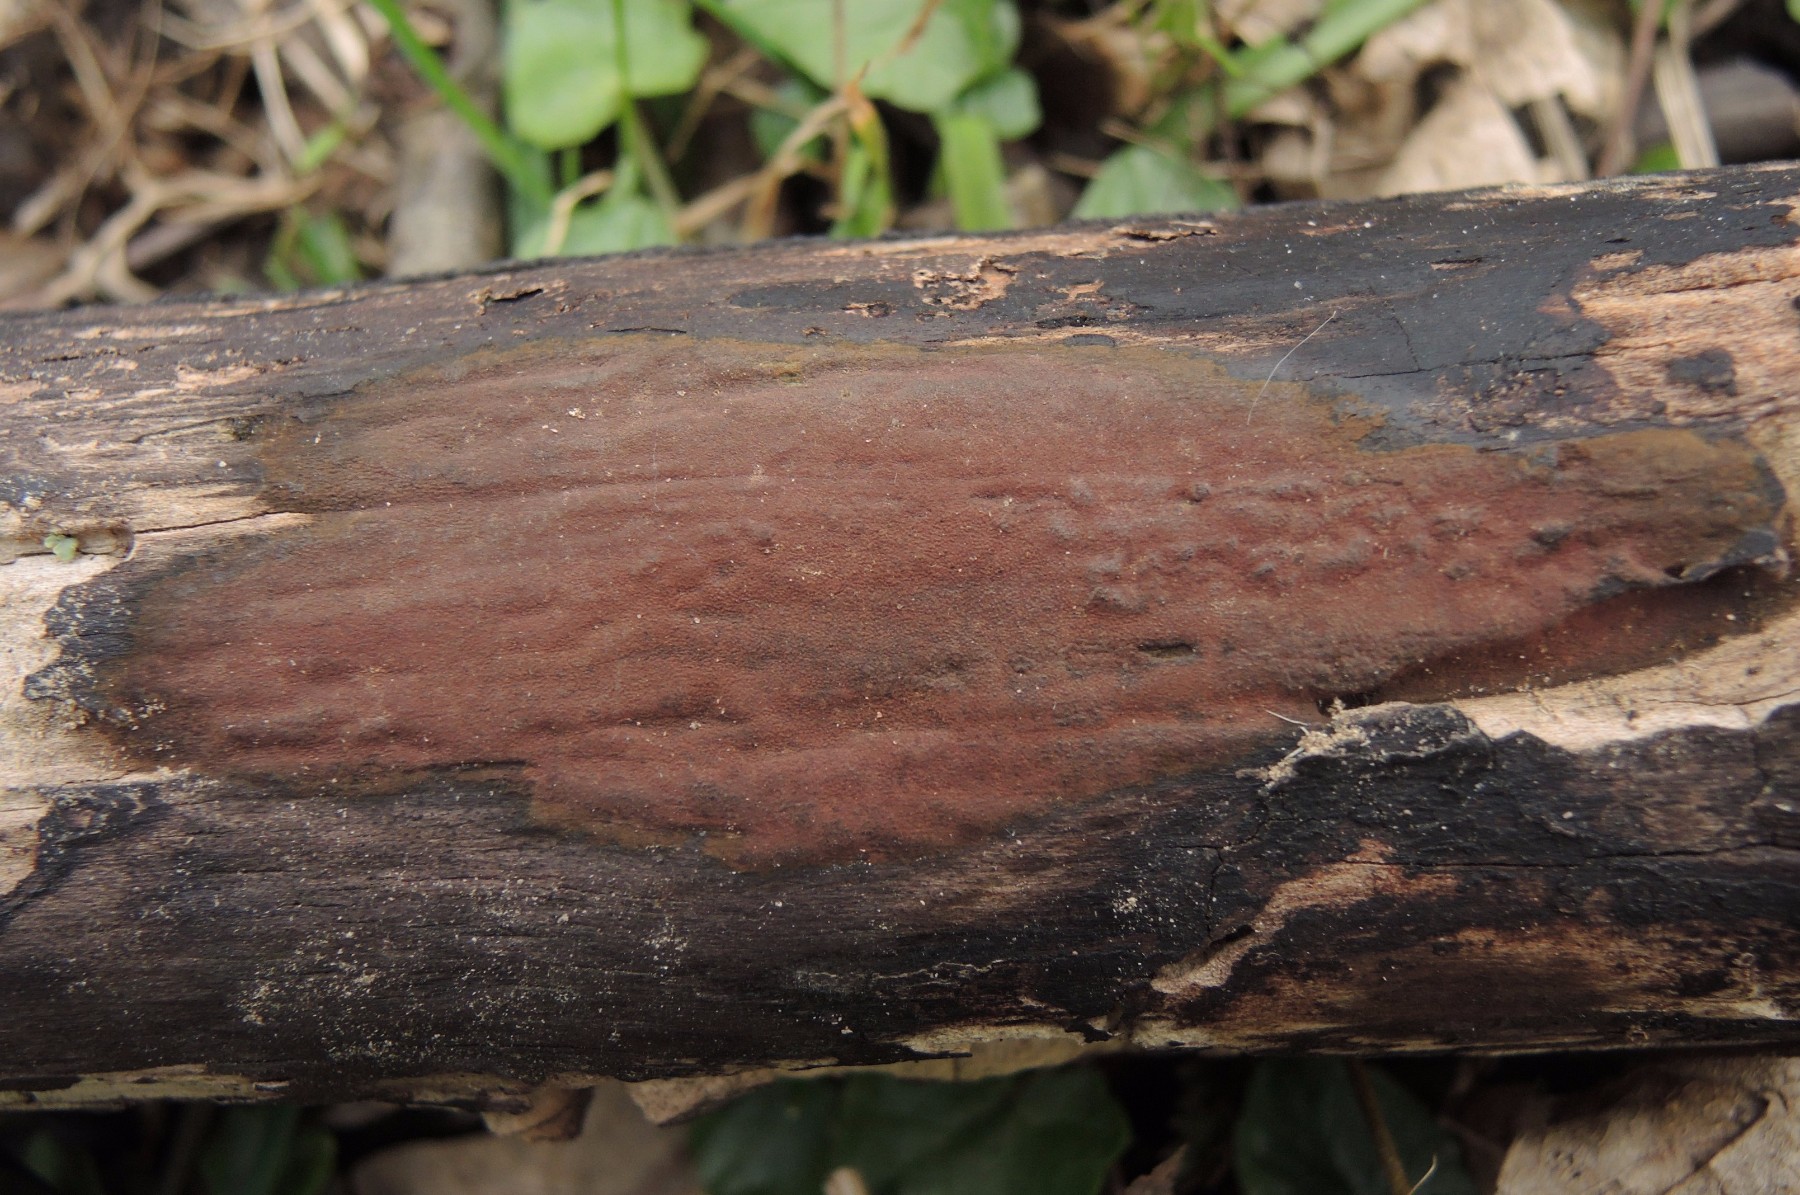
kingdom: Fungi
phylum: Ascomycota
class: Sordariomycetes
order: Xylariales
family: Hypoxylaceae
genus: Hypoxylon
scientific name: Hypoxylon macrocarpum
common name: skorpe-kulbær
